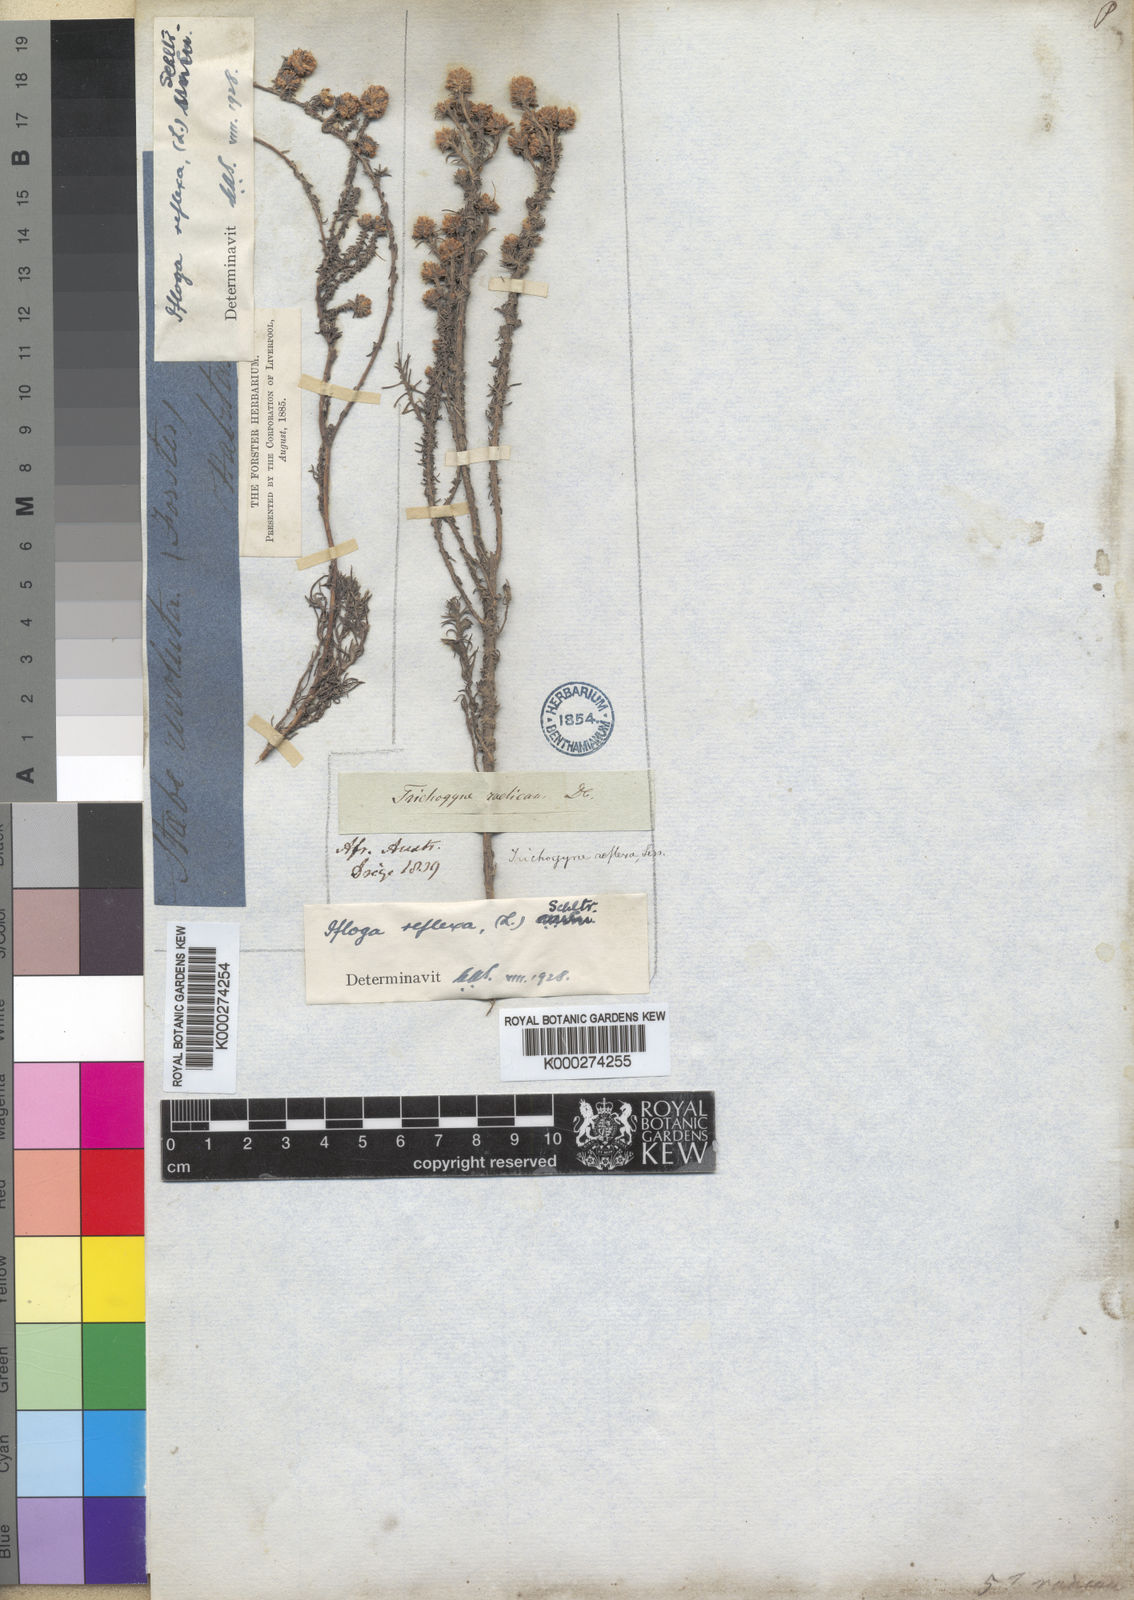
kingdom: Plantae
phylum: Tracheophyta
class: Magnoliopsida
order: Asterales
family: Asteraceae
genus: Ifloga
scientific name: Ifloga repens
